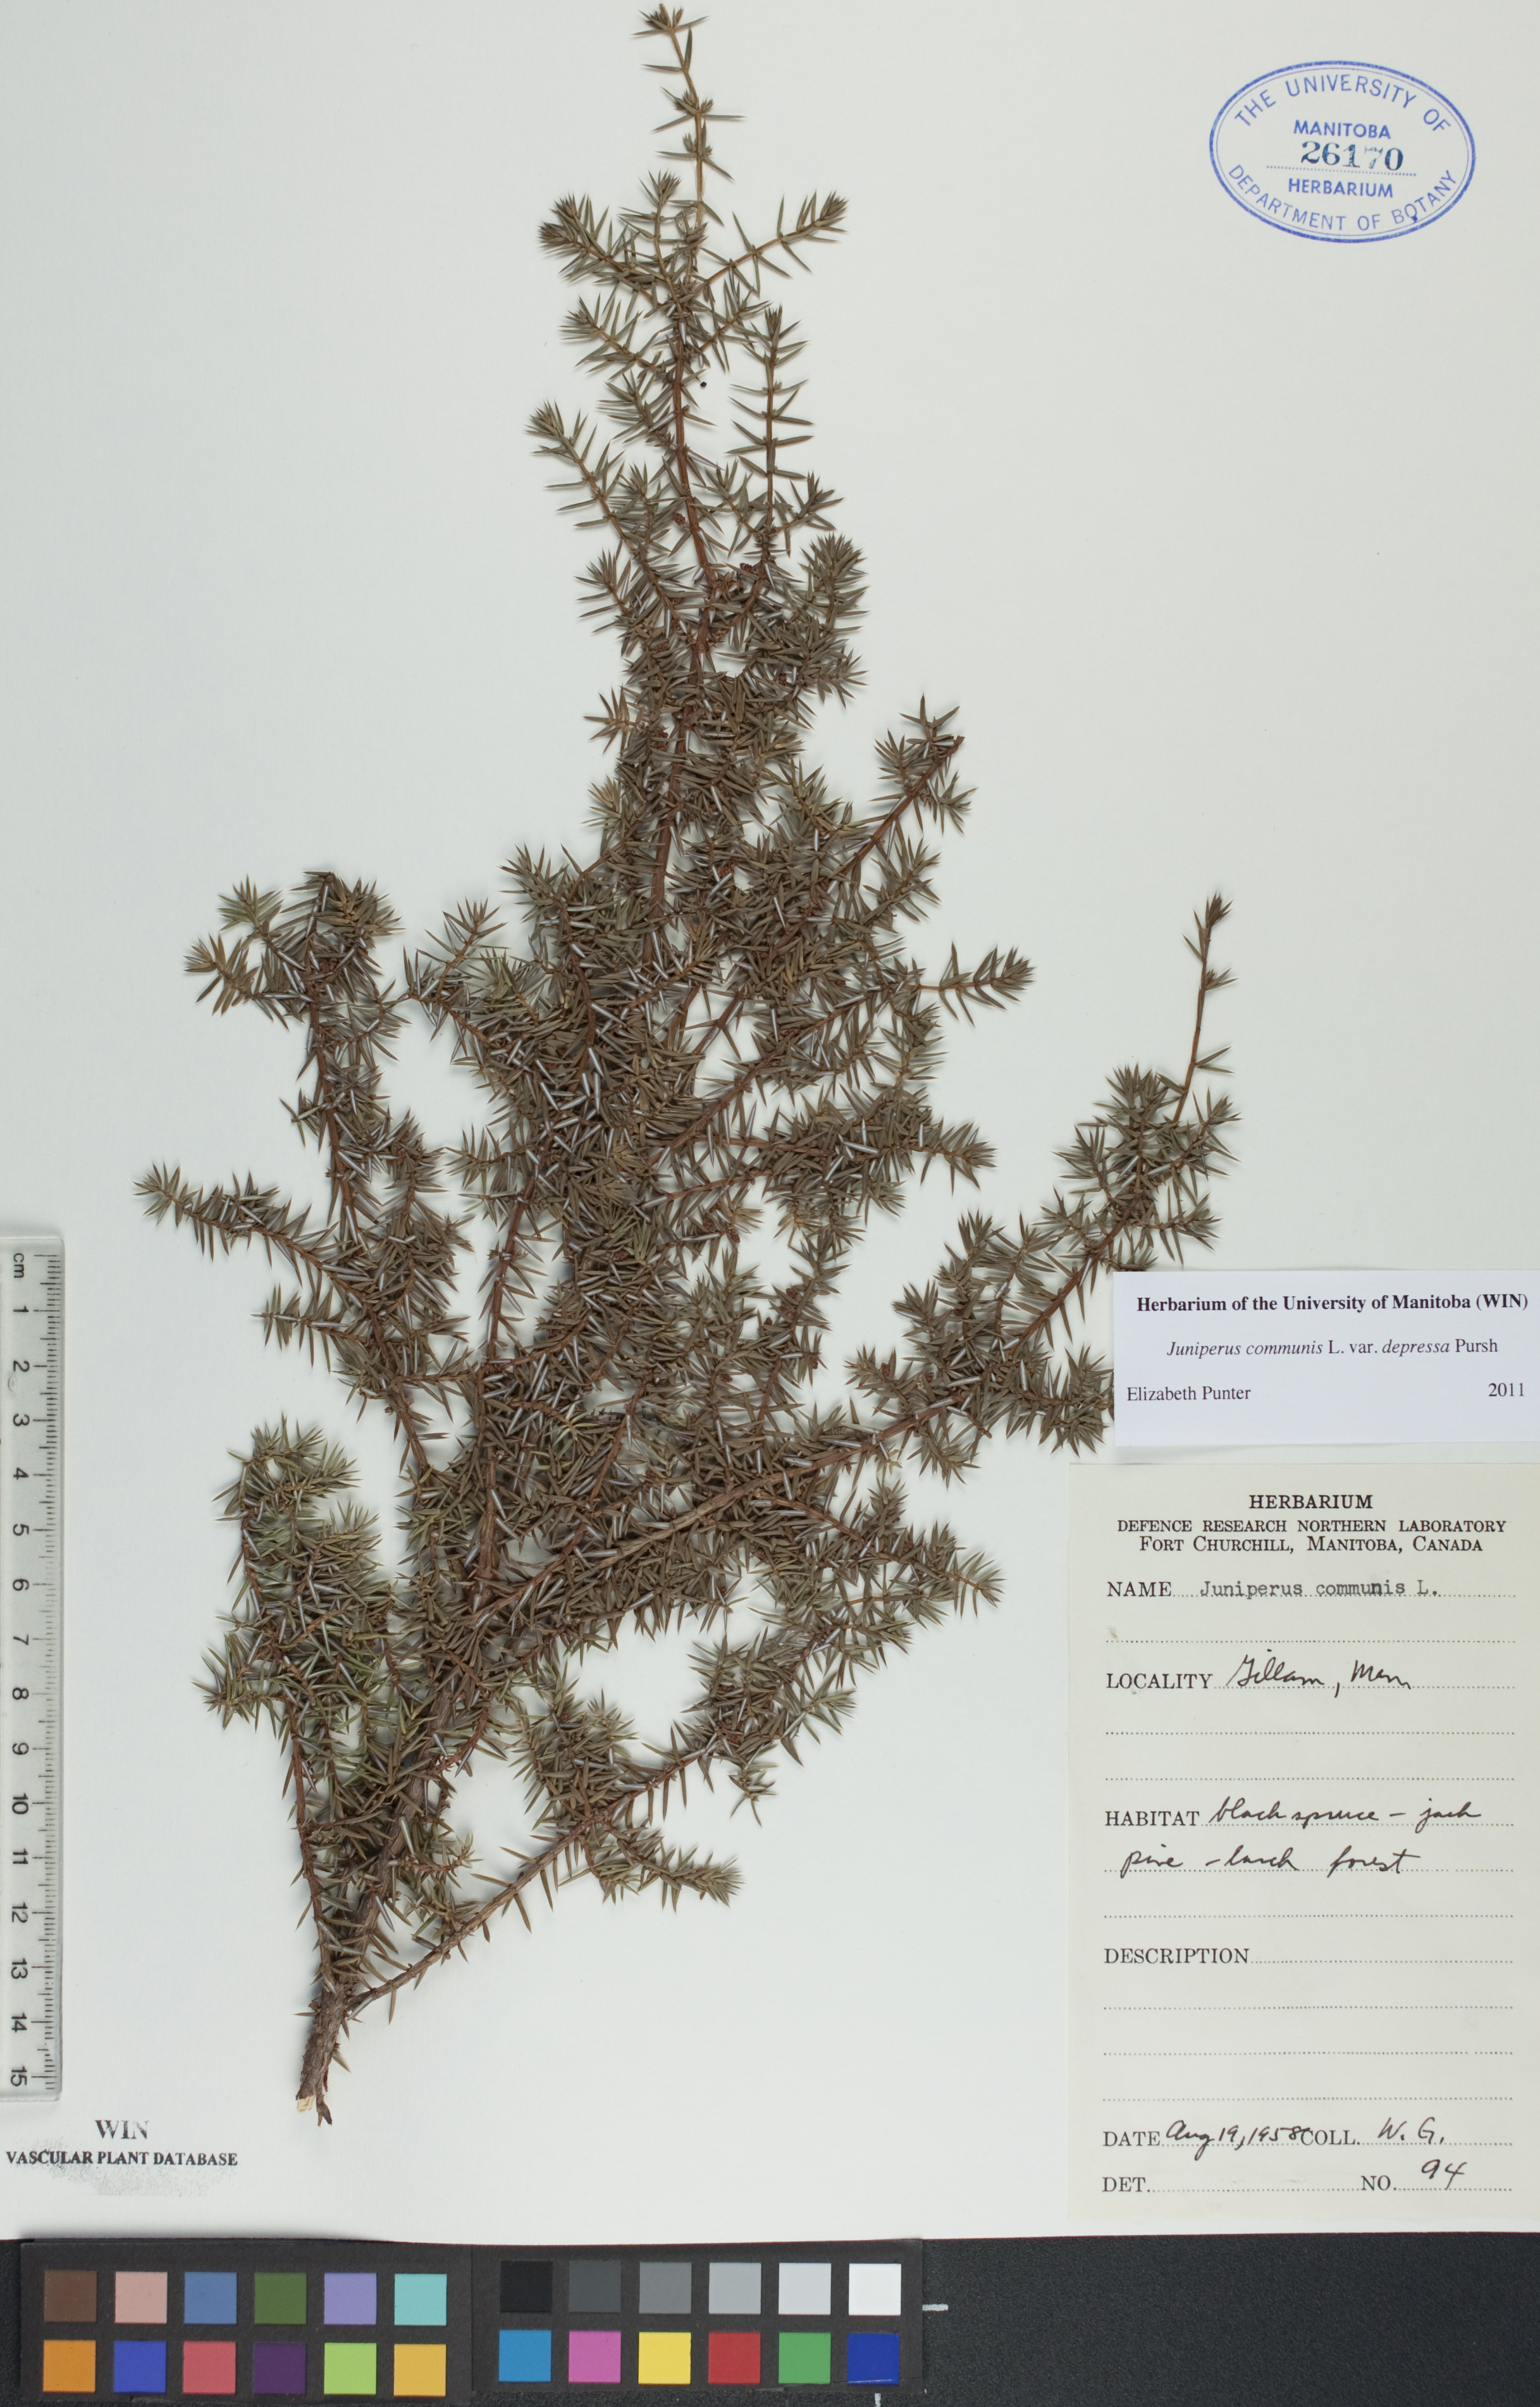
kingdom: Plantae
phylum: Tracheophyta
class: Pinopsida
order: Pinales
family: Cupressaceae
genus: Juniperus
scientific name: Juniperus communis
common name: Common juniper
